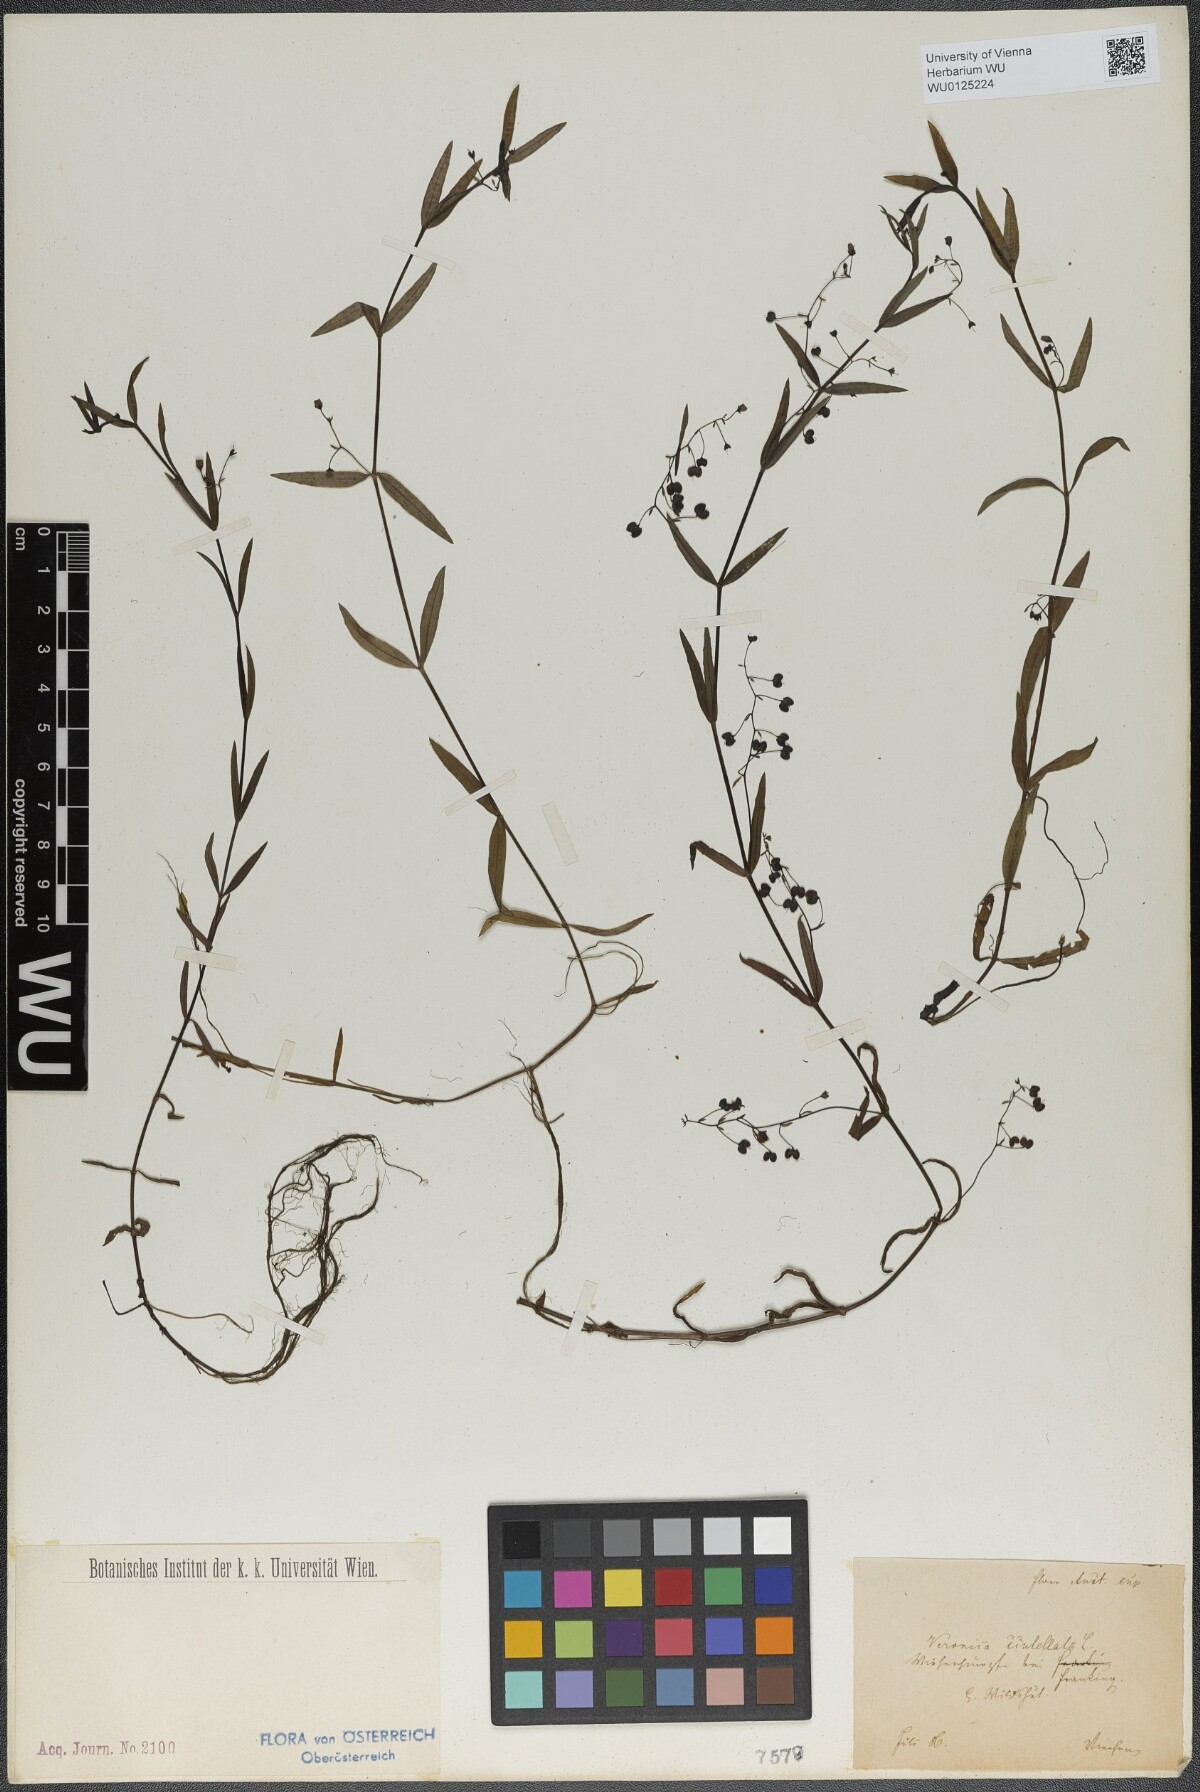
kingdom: Plantae
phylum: Tracheophyta
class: Magnoliopsida
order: Lamiales
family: Plantaginaceae
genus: Veronica
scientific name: Veronica scutellata
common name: Marsh speedwell
